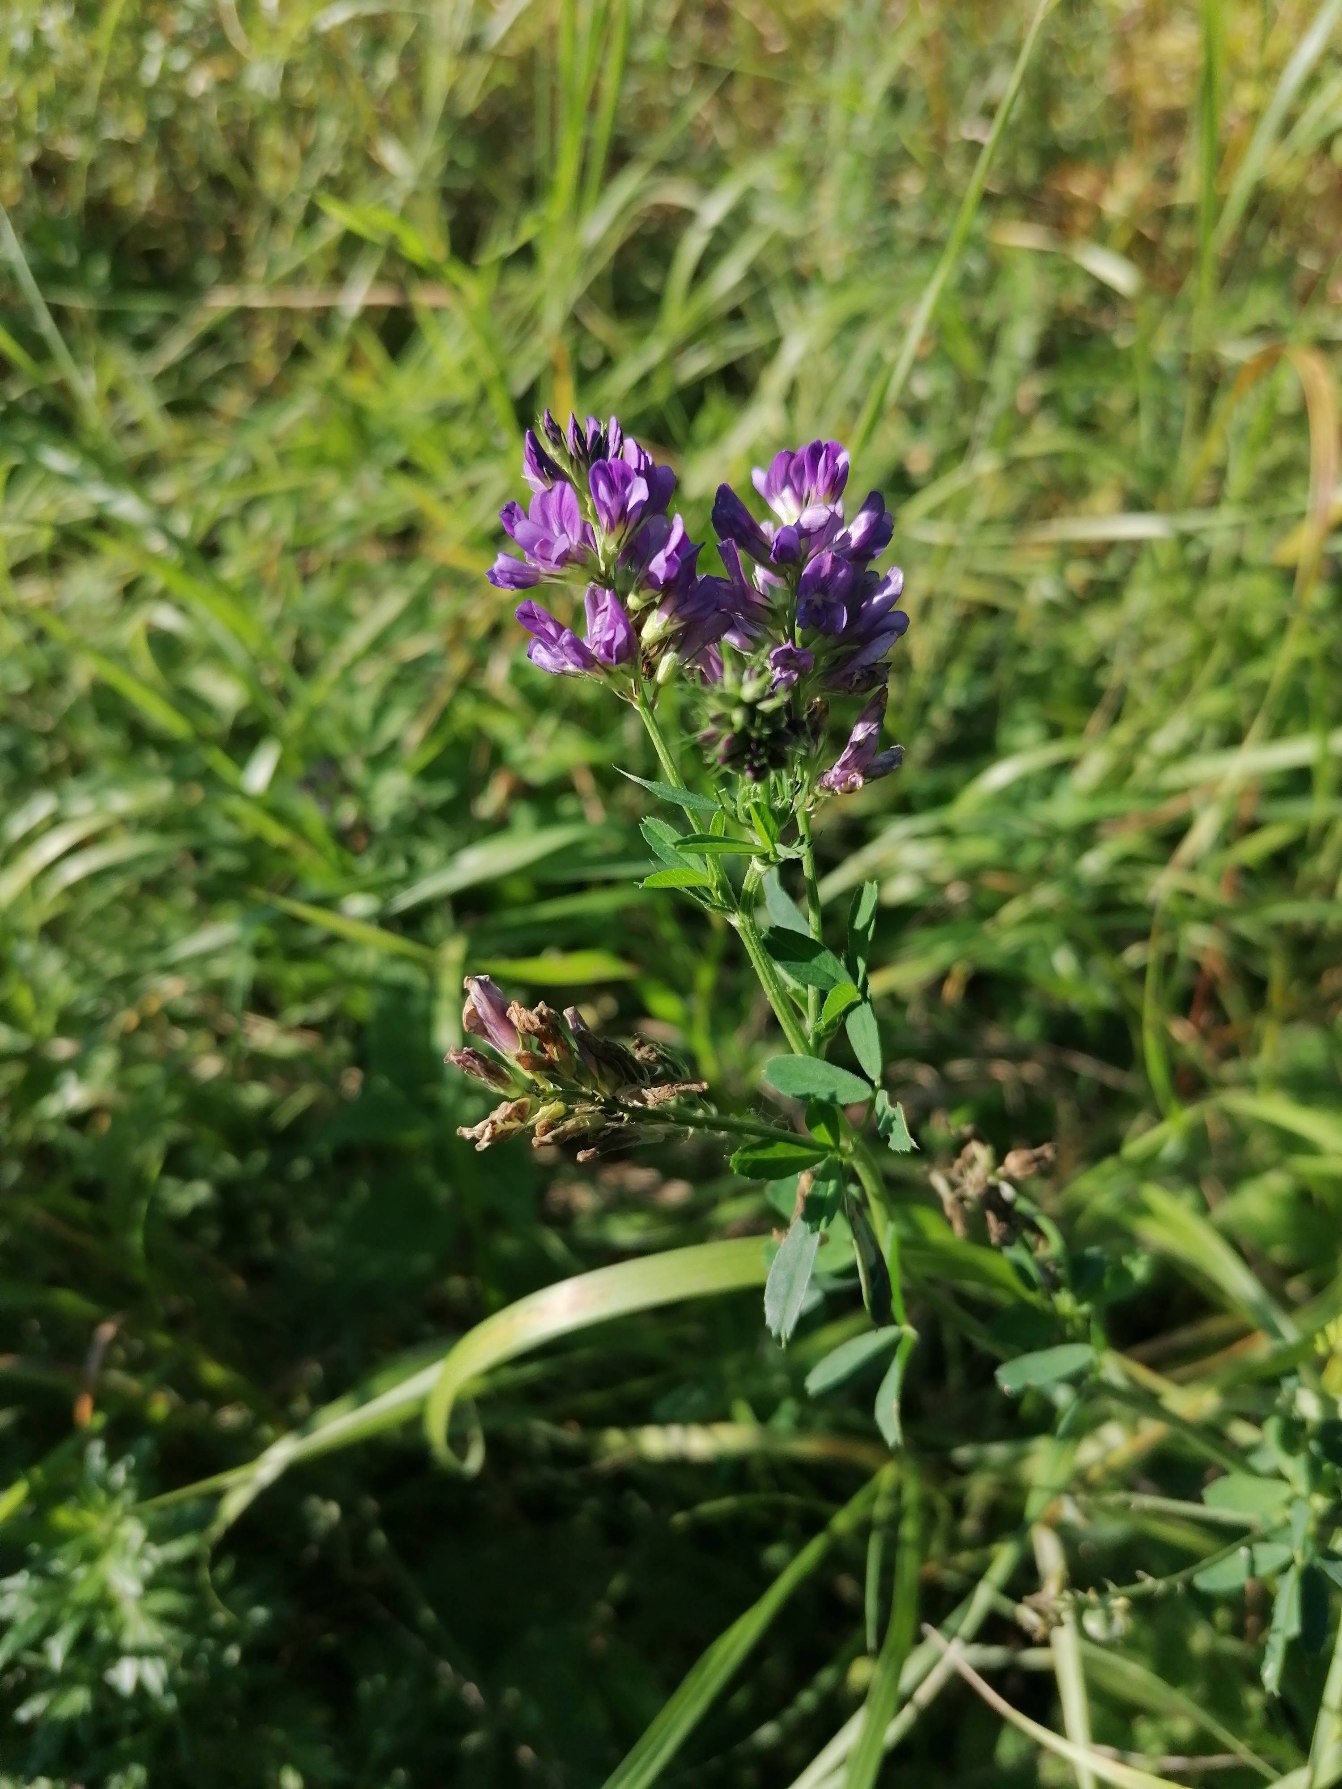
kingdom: Plantae
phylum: Tracheophyta
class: Magnoliopsida
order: Fabales
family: Fabaceae
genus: Medicago
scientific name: Medicago sativa
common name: Lucerne
